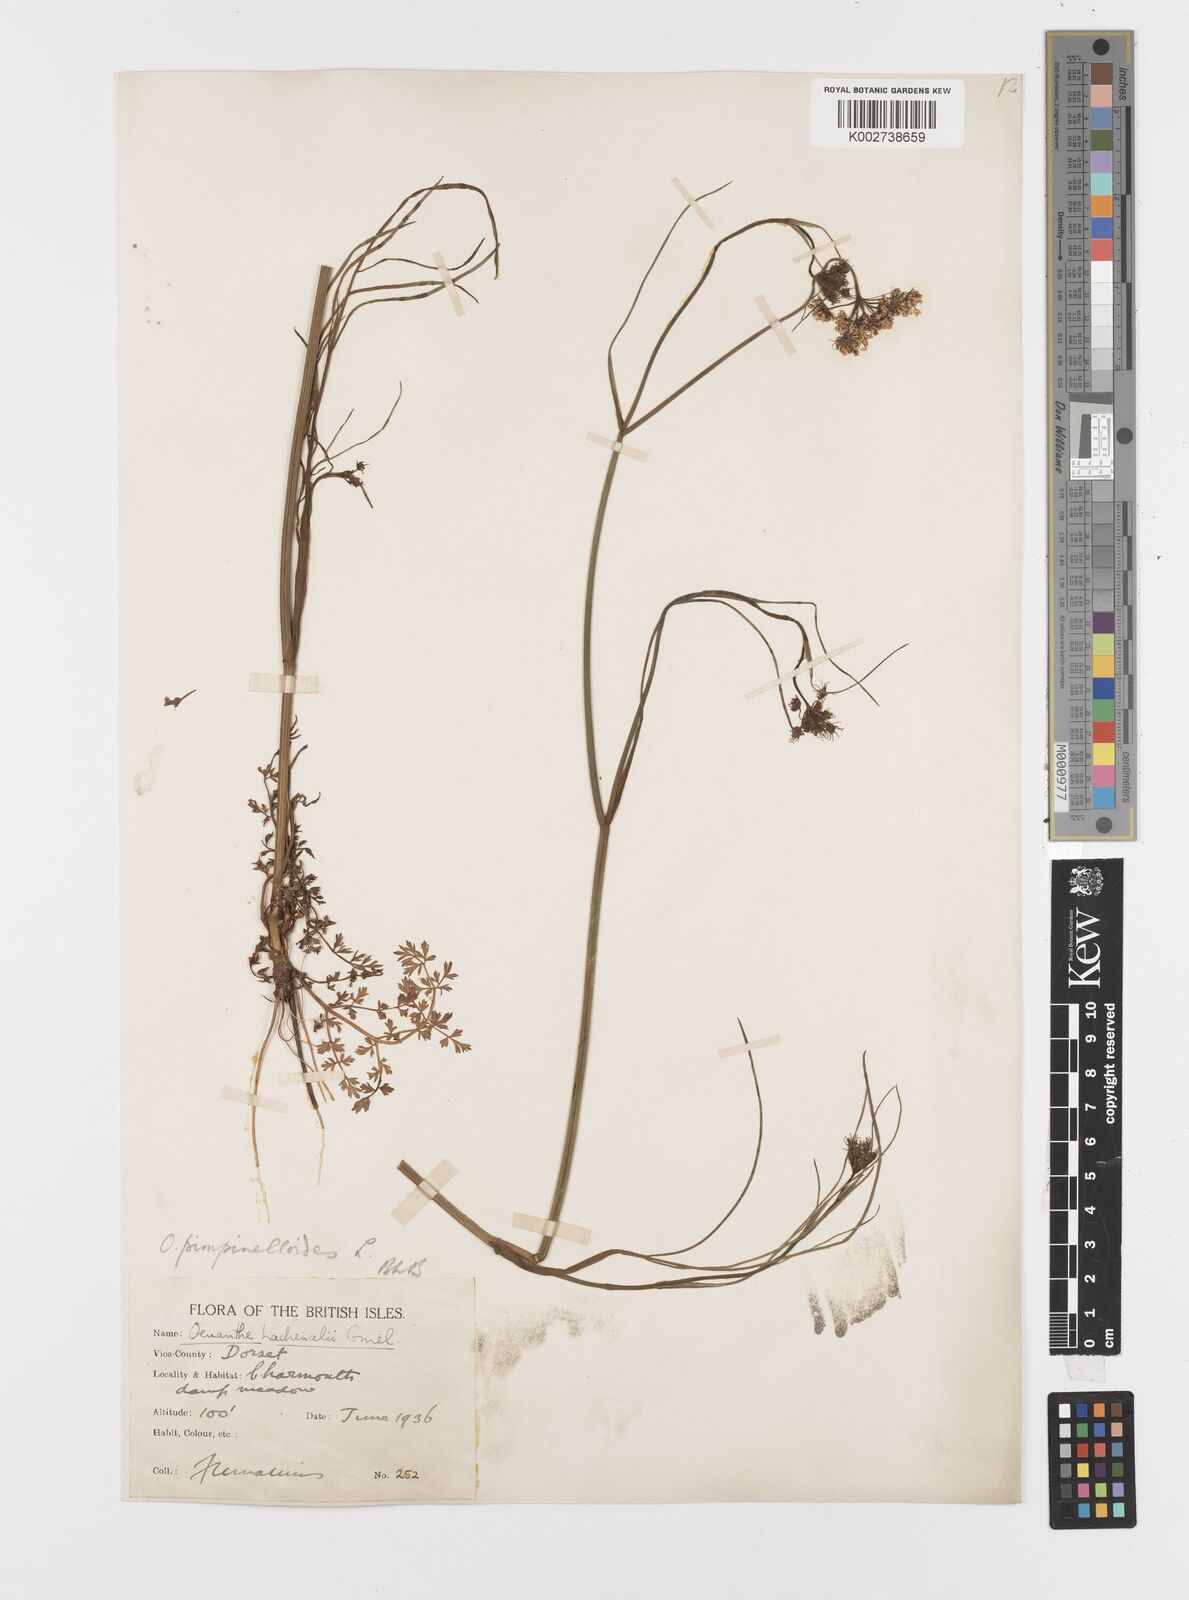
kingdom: Plantae
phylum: Tracheophyta
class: Magnoliopsida
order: Apiales
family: Apiaceae
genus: Oenanthe
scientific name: Oenanthe pimpinelloides
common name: Corky-fruited water-dropwort
